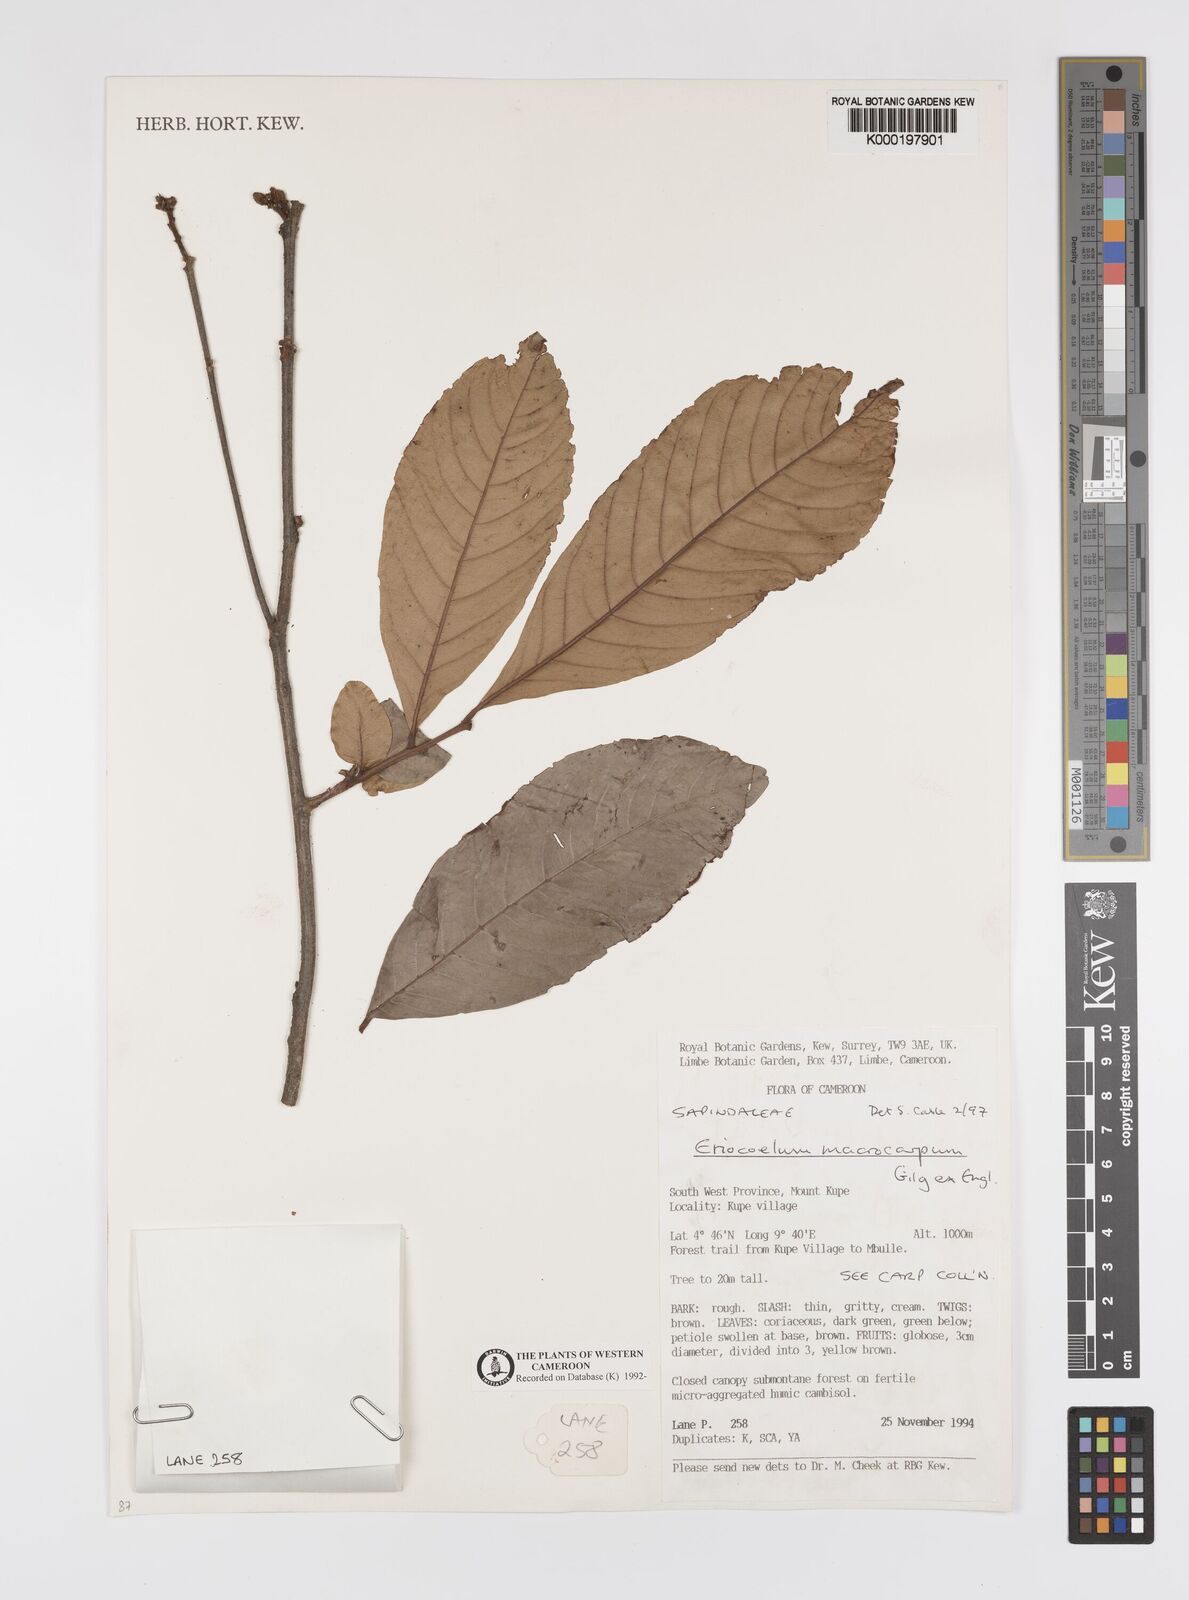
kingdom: Plantae
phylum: Tracheophyta
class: Magnoliopsida
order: Sapindales
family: Sapindaceae
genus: Eriocoelum
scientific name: Eriocoelum
